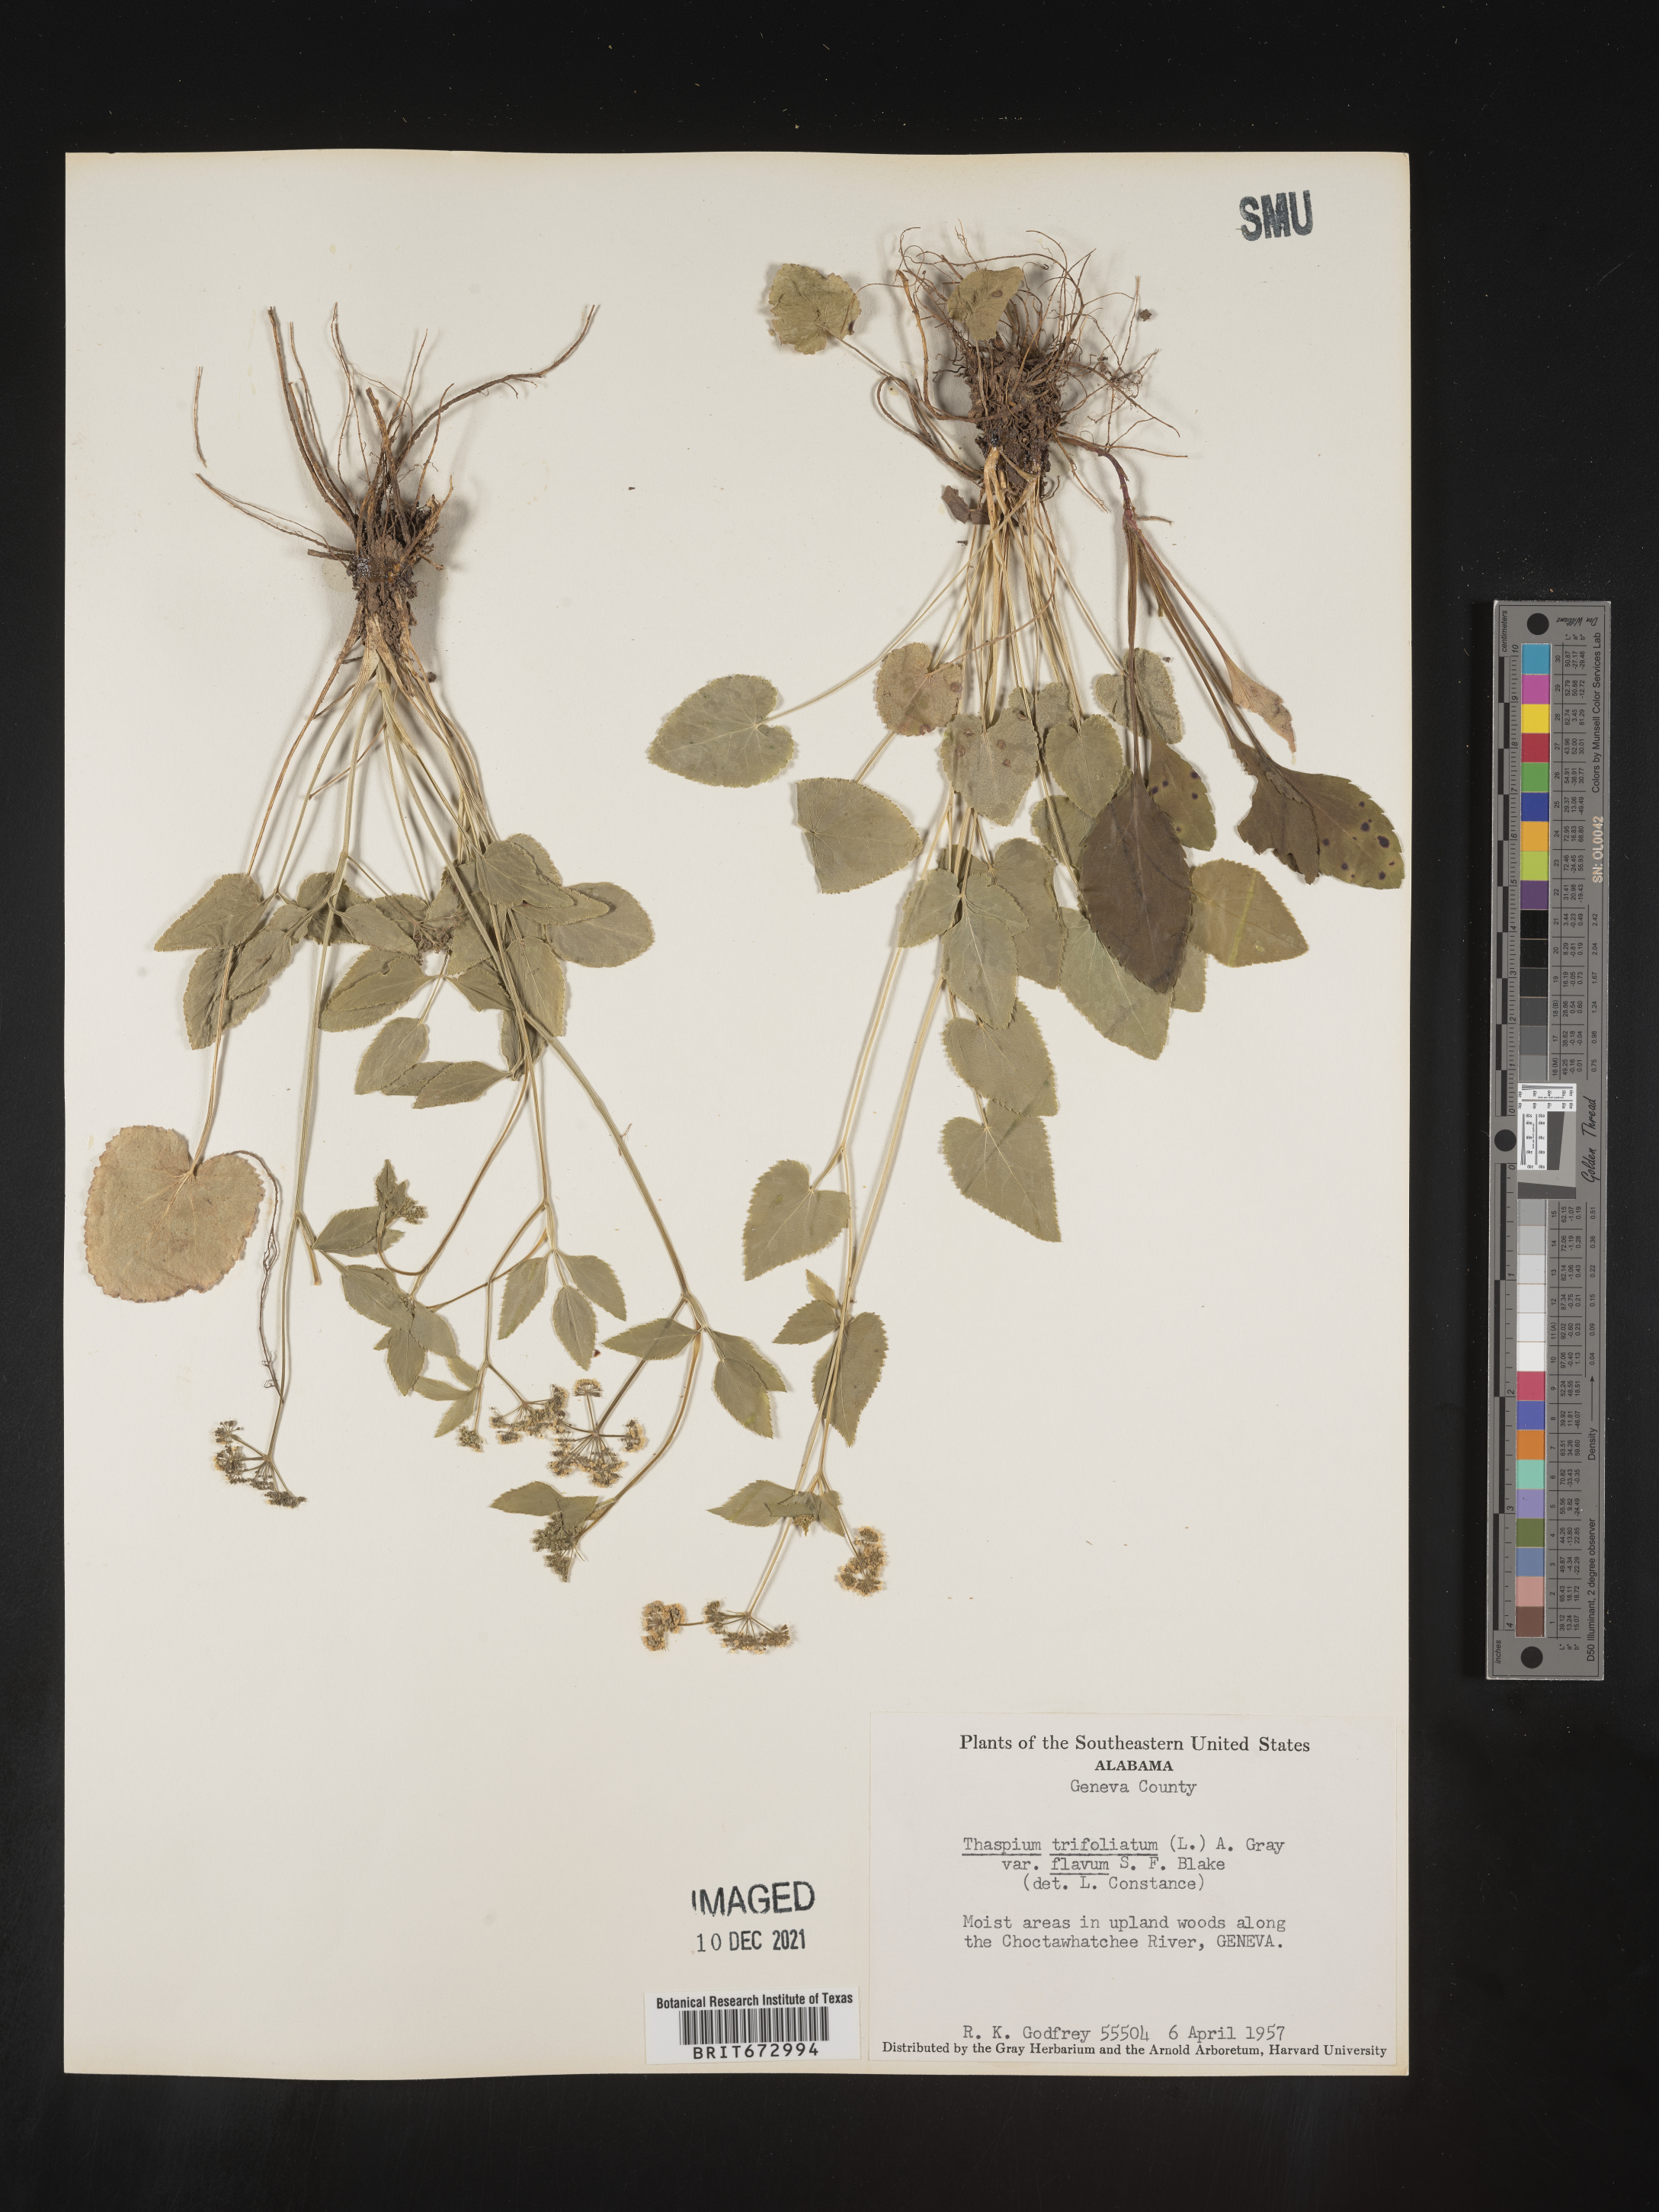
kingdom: Plantae
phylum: Tracheophyta
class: Magnoliopsida
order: Apiales
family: Apiaceae
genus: Thaspium
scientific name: Thaspium
